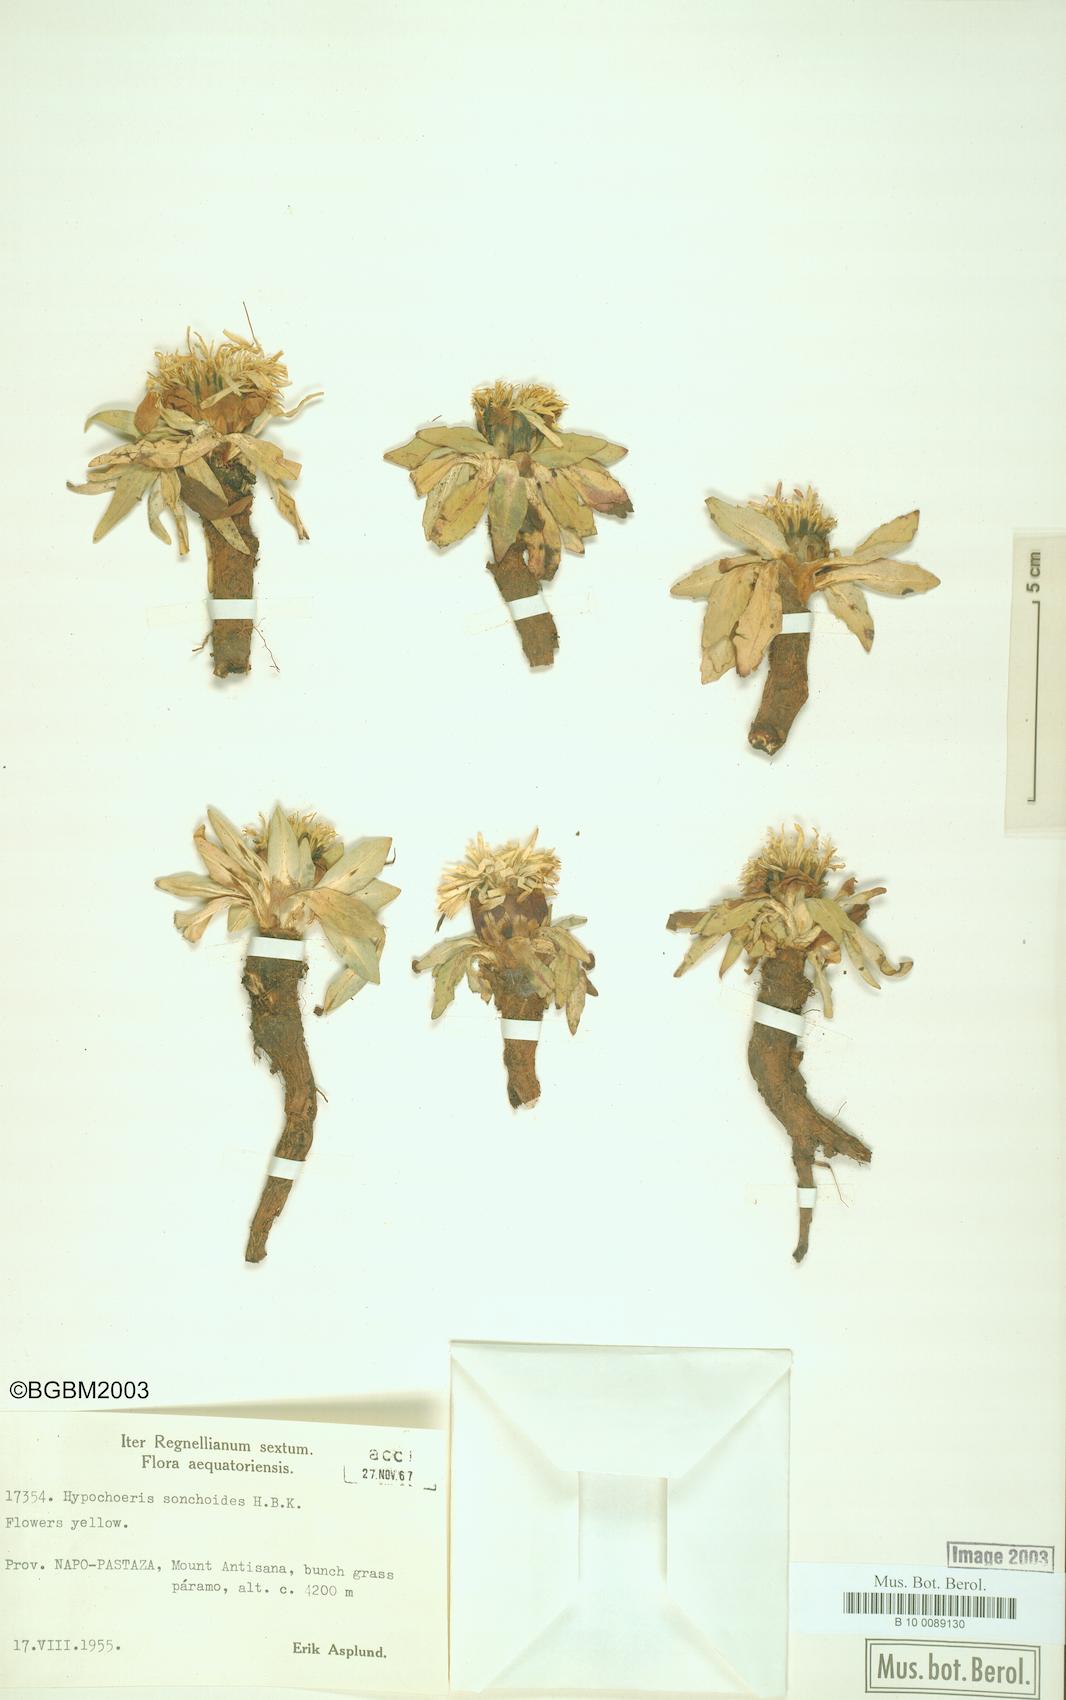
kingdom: Plantae
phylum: Tracheophyta
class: Magnoliopsida
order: Asterales
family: Asteraceae
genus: Hypochoeris
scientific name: Hypochoeris
